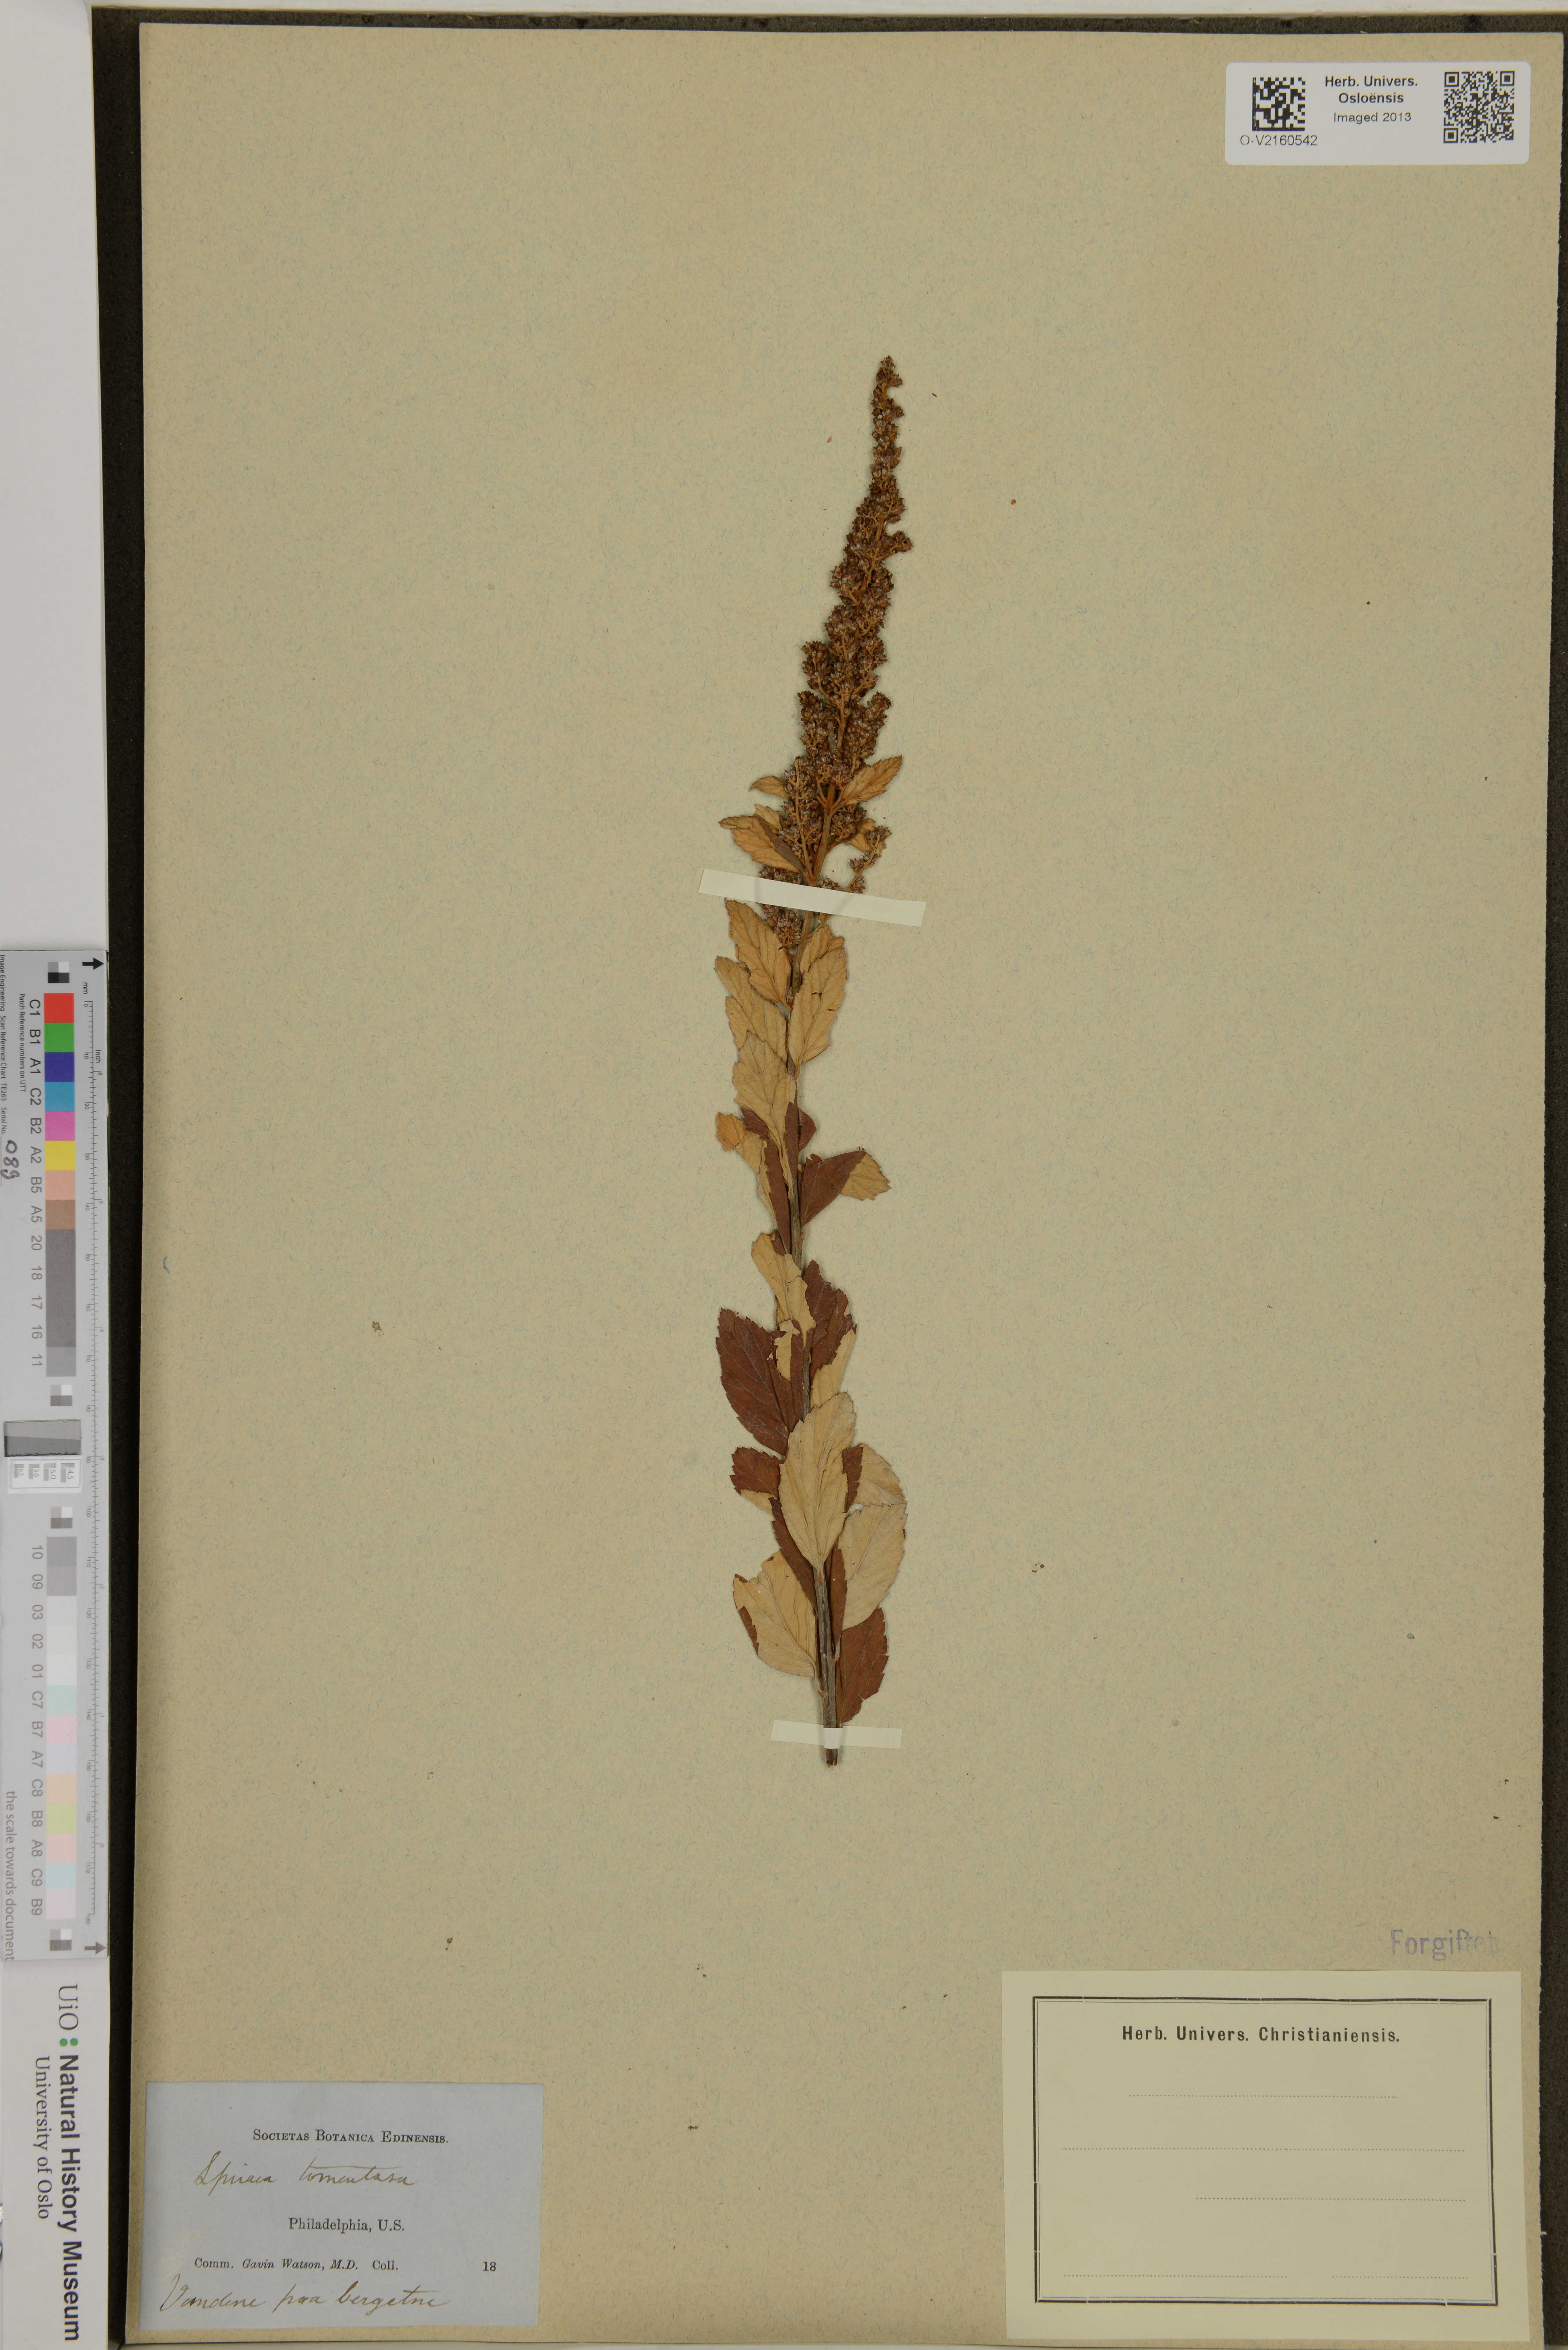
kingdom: Plantae
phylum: Tracheophyta
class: Magnoliopsida
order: Rosales
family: Rosaceae
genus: Spiraea
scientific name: Spiraea tomentosa
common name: Hardhack
